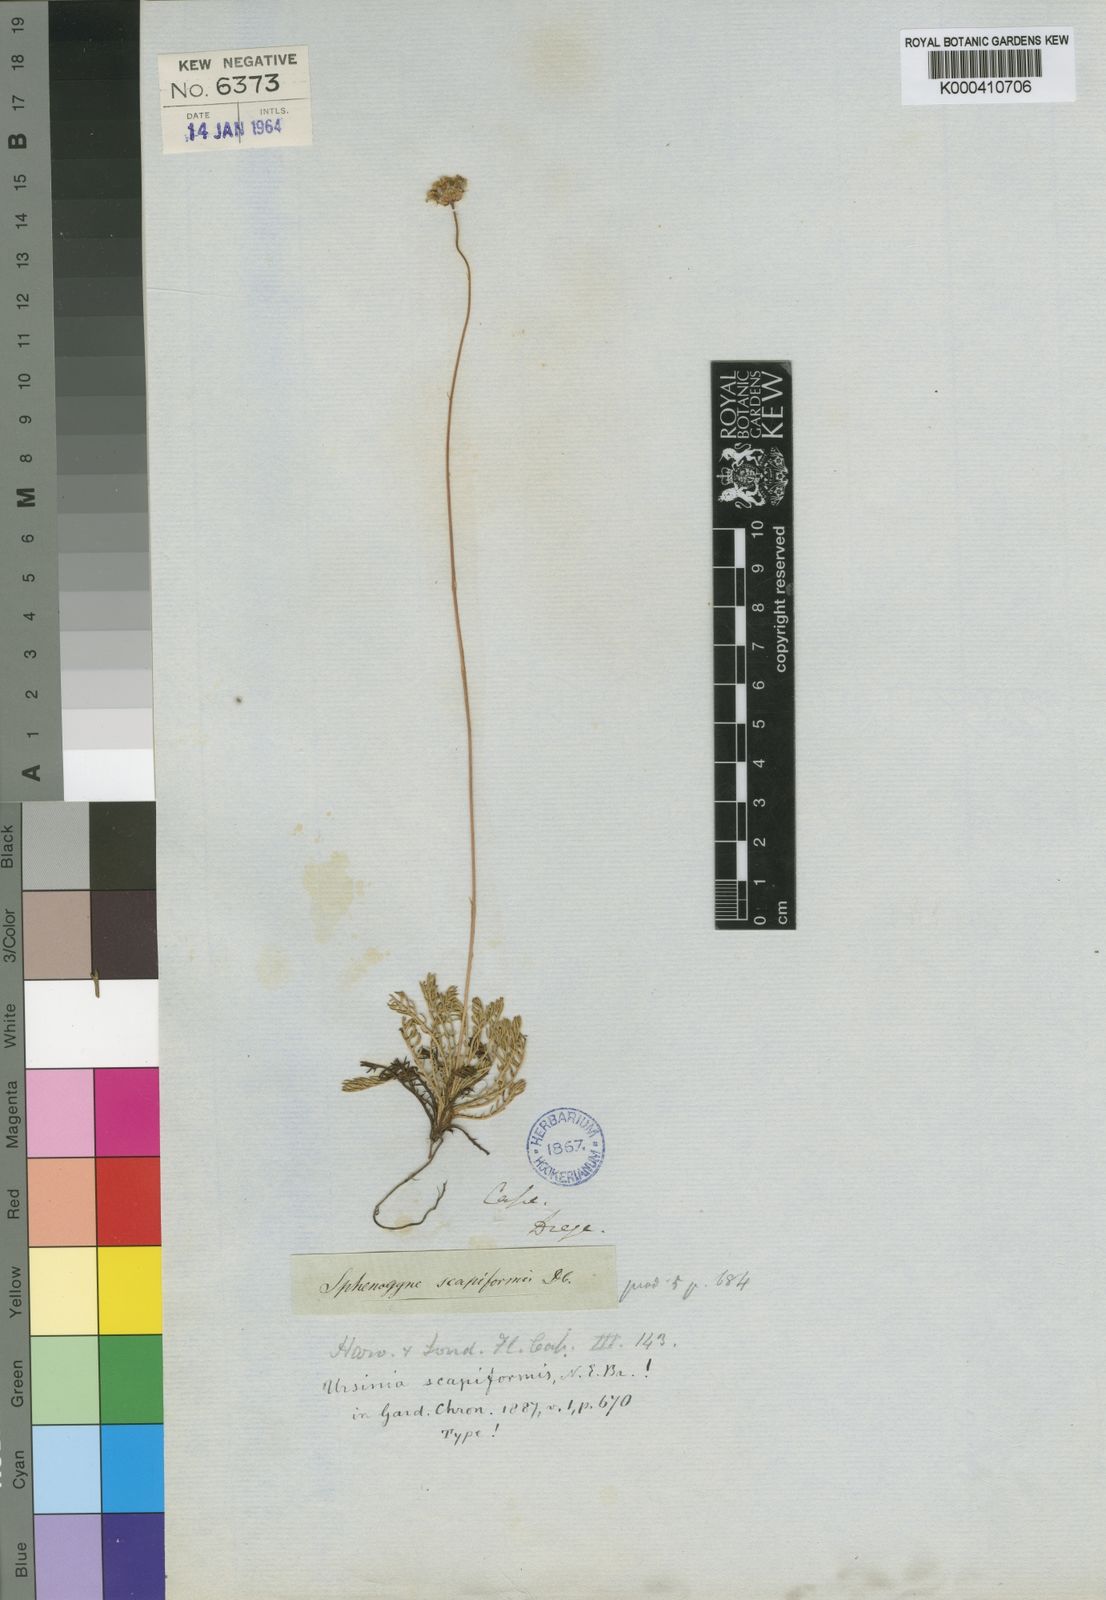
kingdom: Plantae
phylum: Tracheophyta
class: Magnoliopsida
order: Asterales
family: Asteraceae
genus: Ursinia
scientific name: Ursinia nudicaulis
